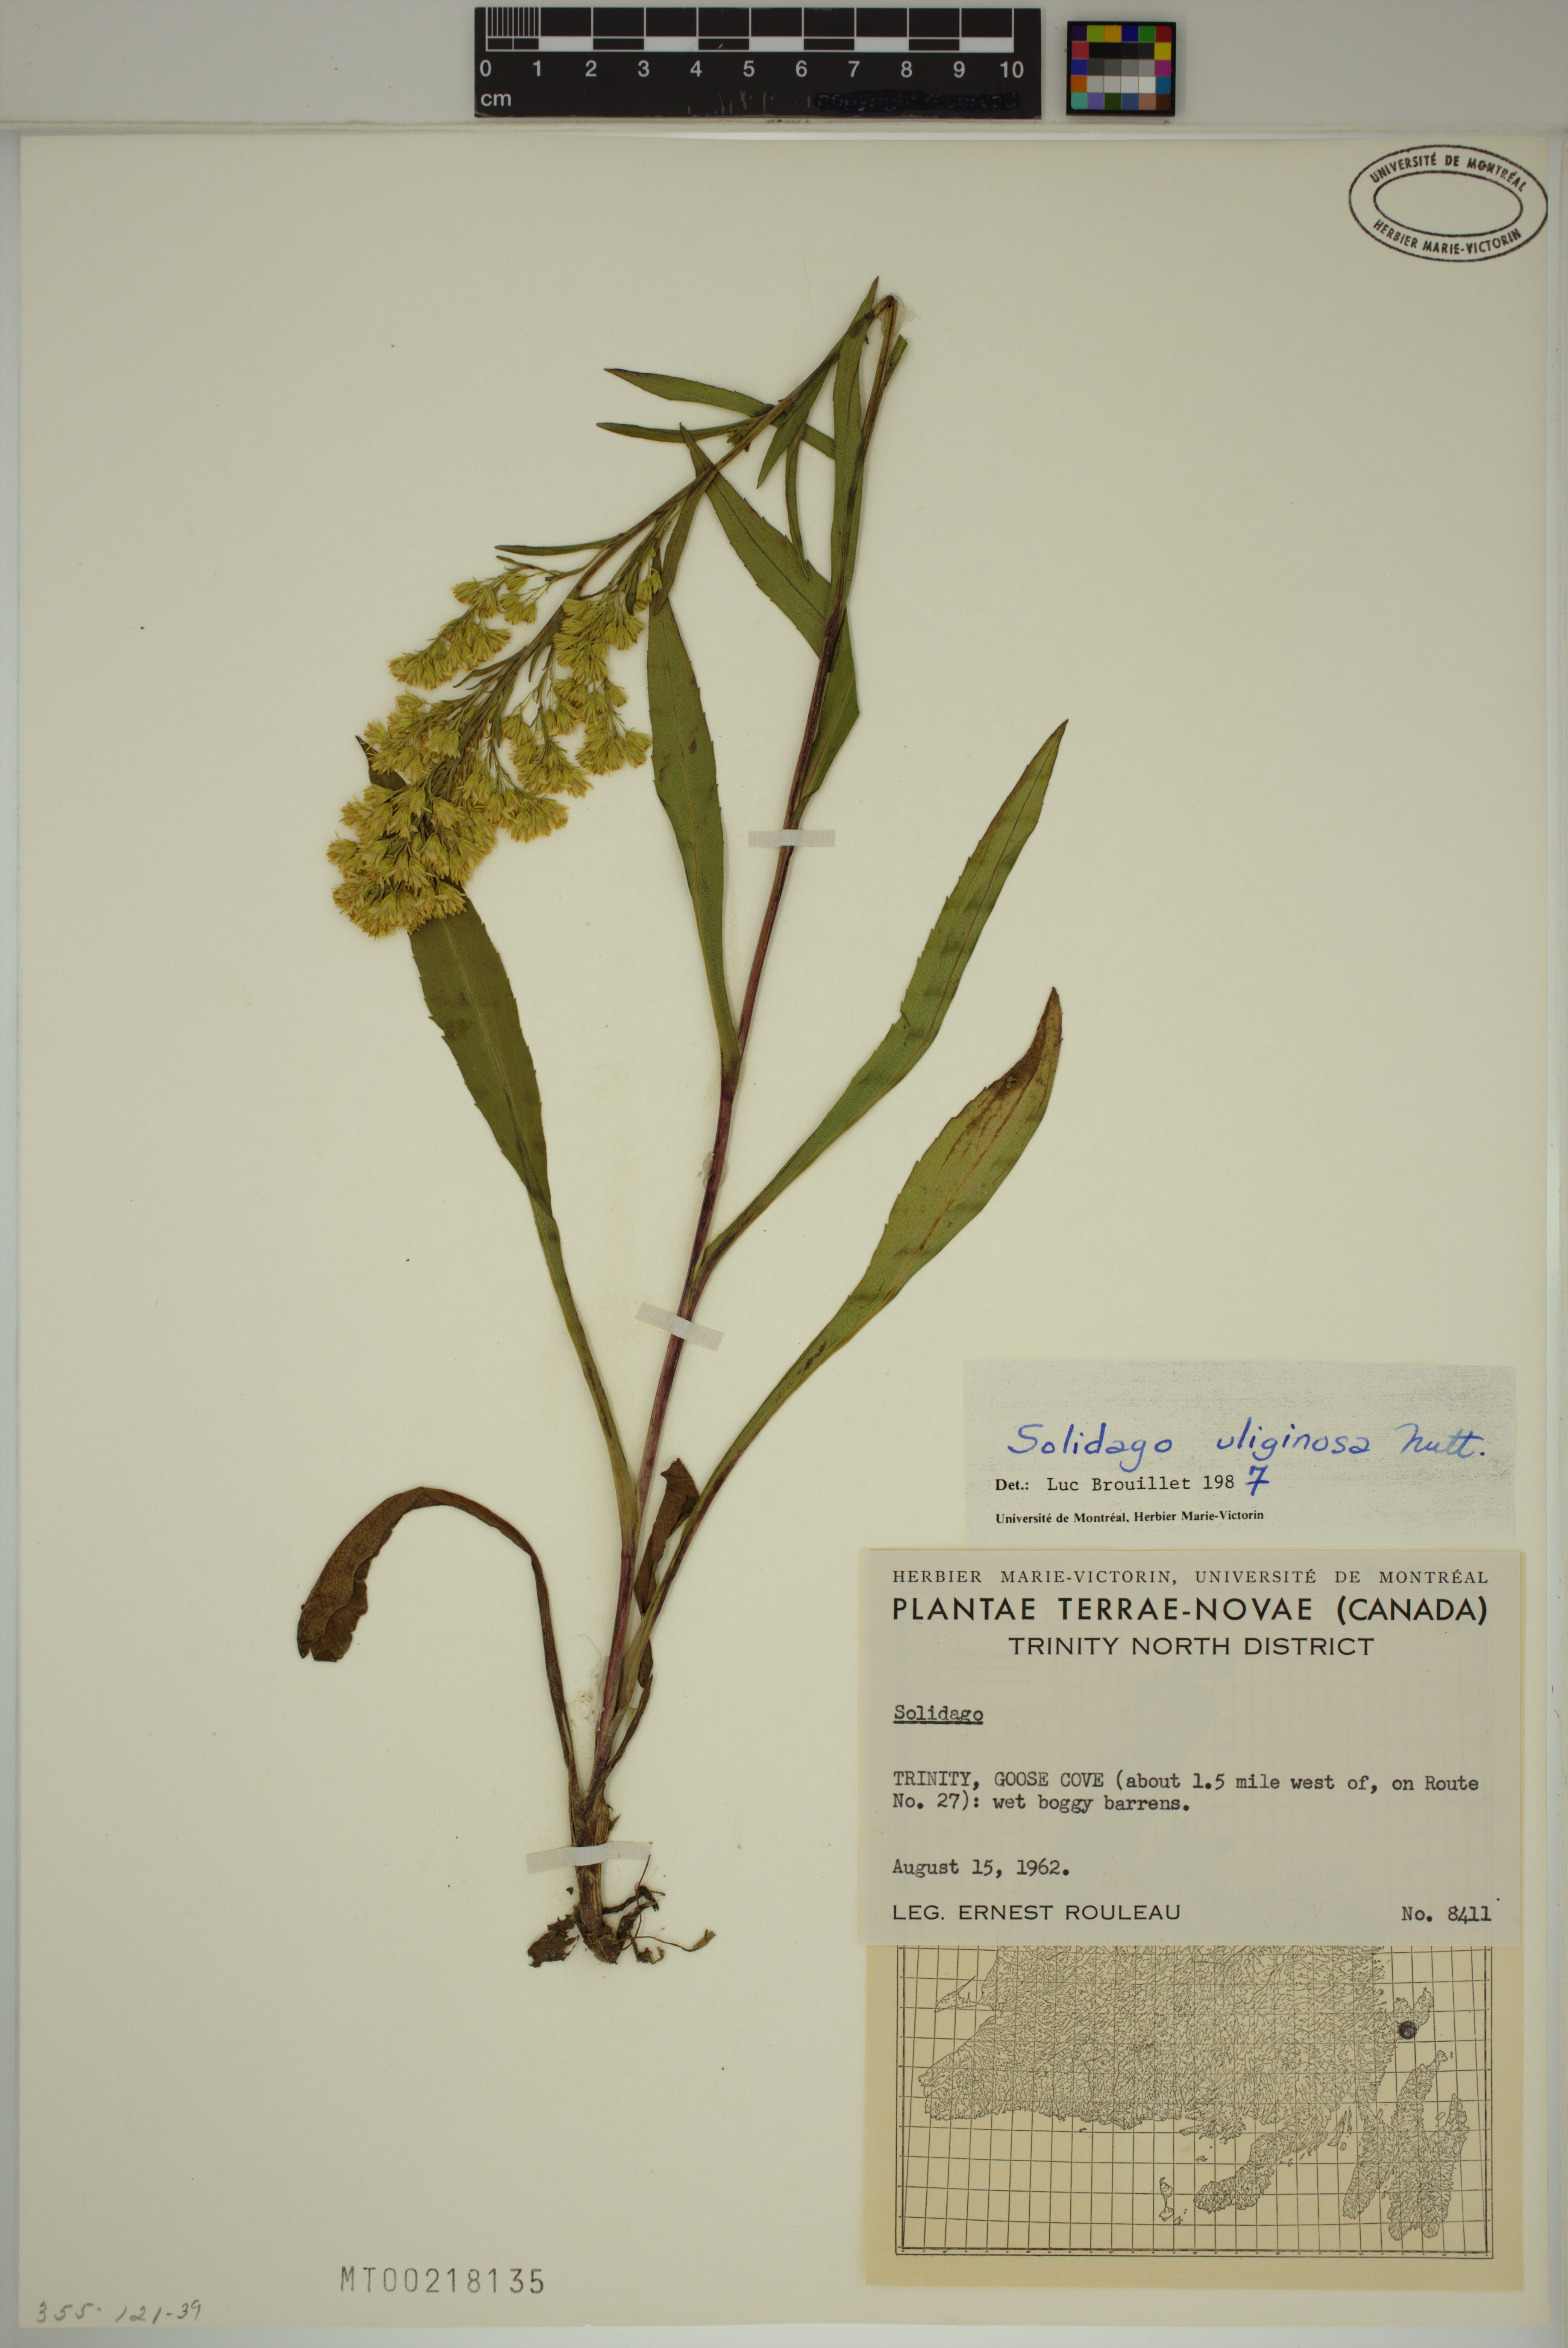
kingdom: Plantae
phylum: Tracheophyta
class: Magnoliopsida
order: Asterales
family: Asteraceae
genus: Solidago
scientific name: Solidago uliginosa
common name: Bog goldenrod
